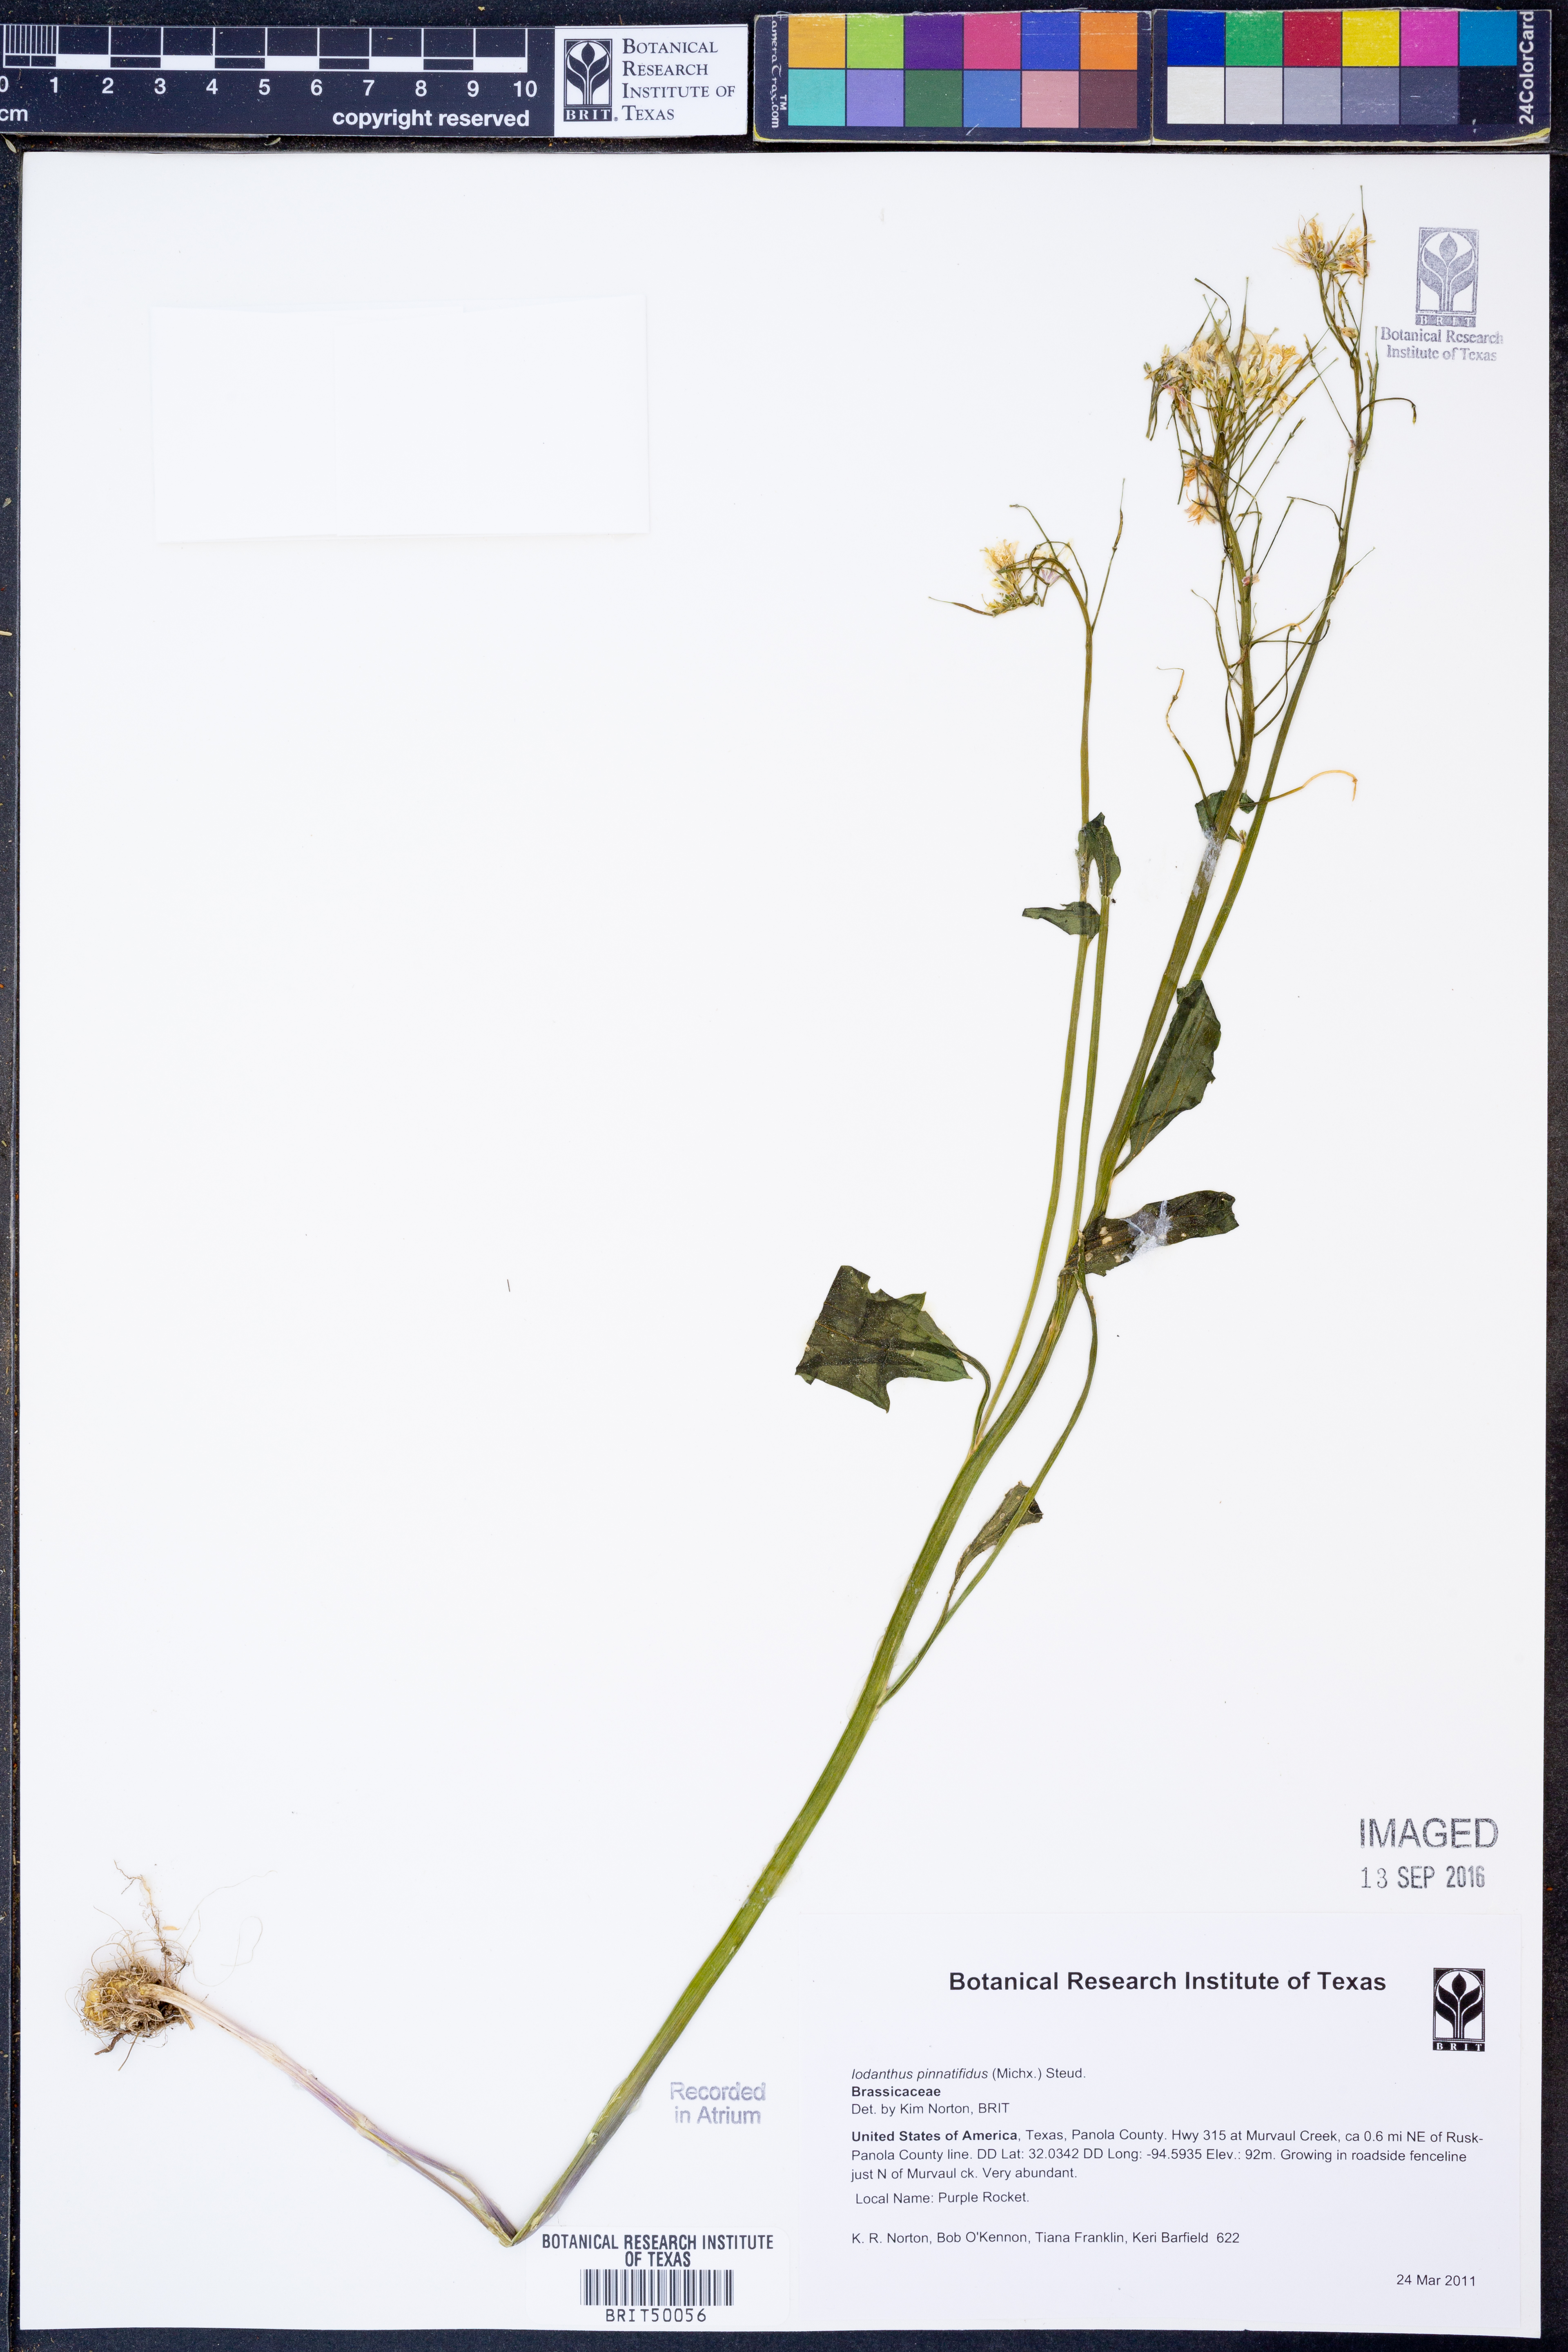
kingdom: Plantae
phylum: Tracheophyta
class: Magnoliopsida
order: Brassicales
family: Brassicaceae
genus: Iodanthus
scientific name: Iodanthus pinnatifidus
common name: Violet rocket
